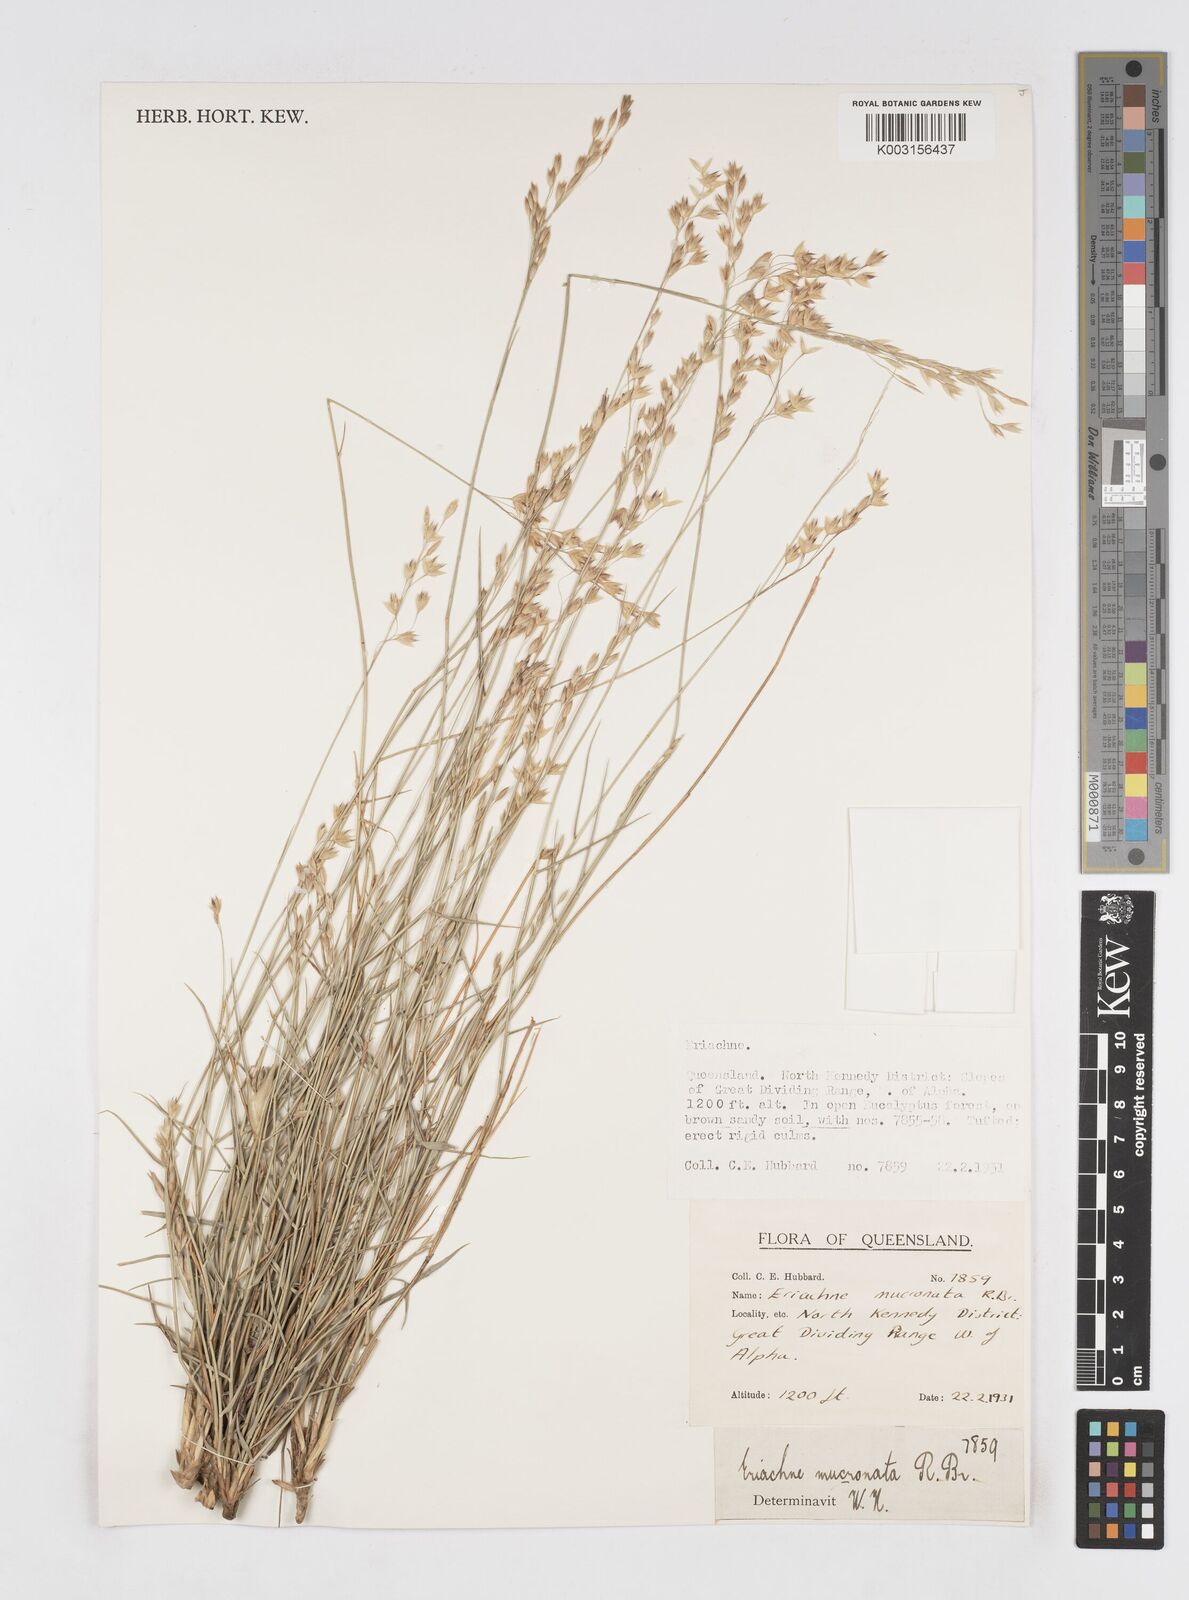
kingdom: Plantae
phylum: Tracheophyta
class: Liliopsida
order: Poales
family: Poaceae
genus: Eriachne
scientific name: Eriachne mucronata
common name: Mountain wanderrie grass
